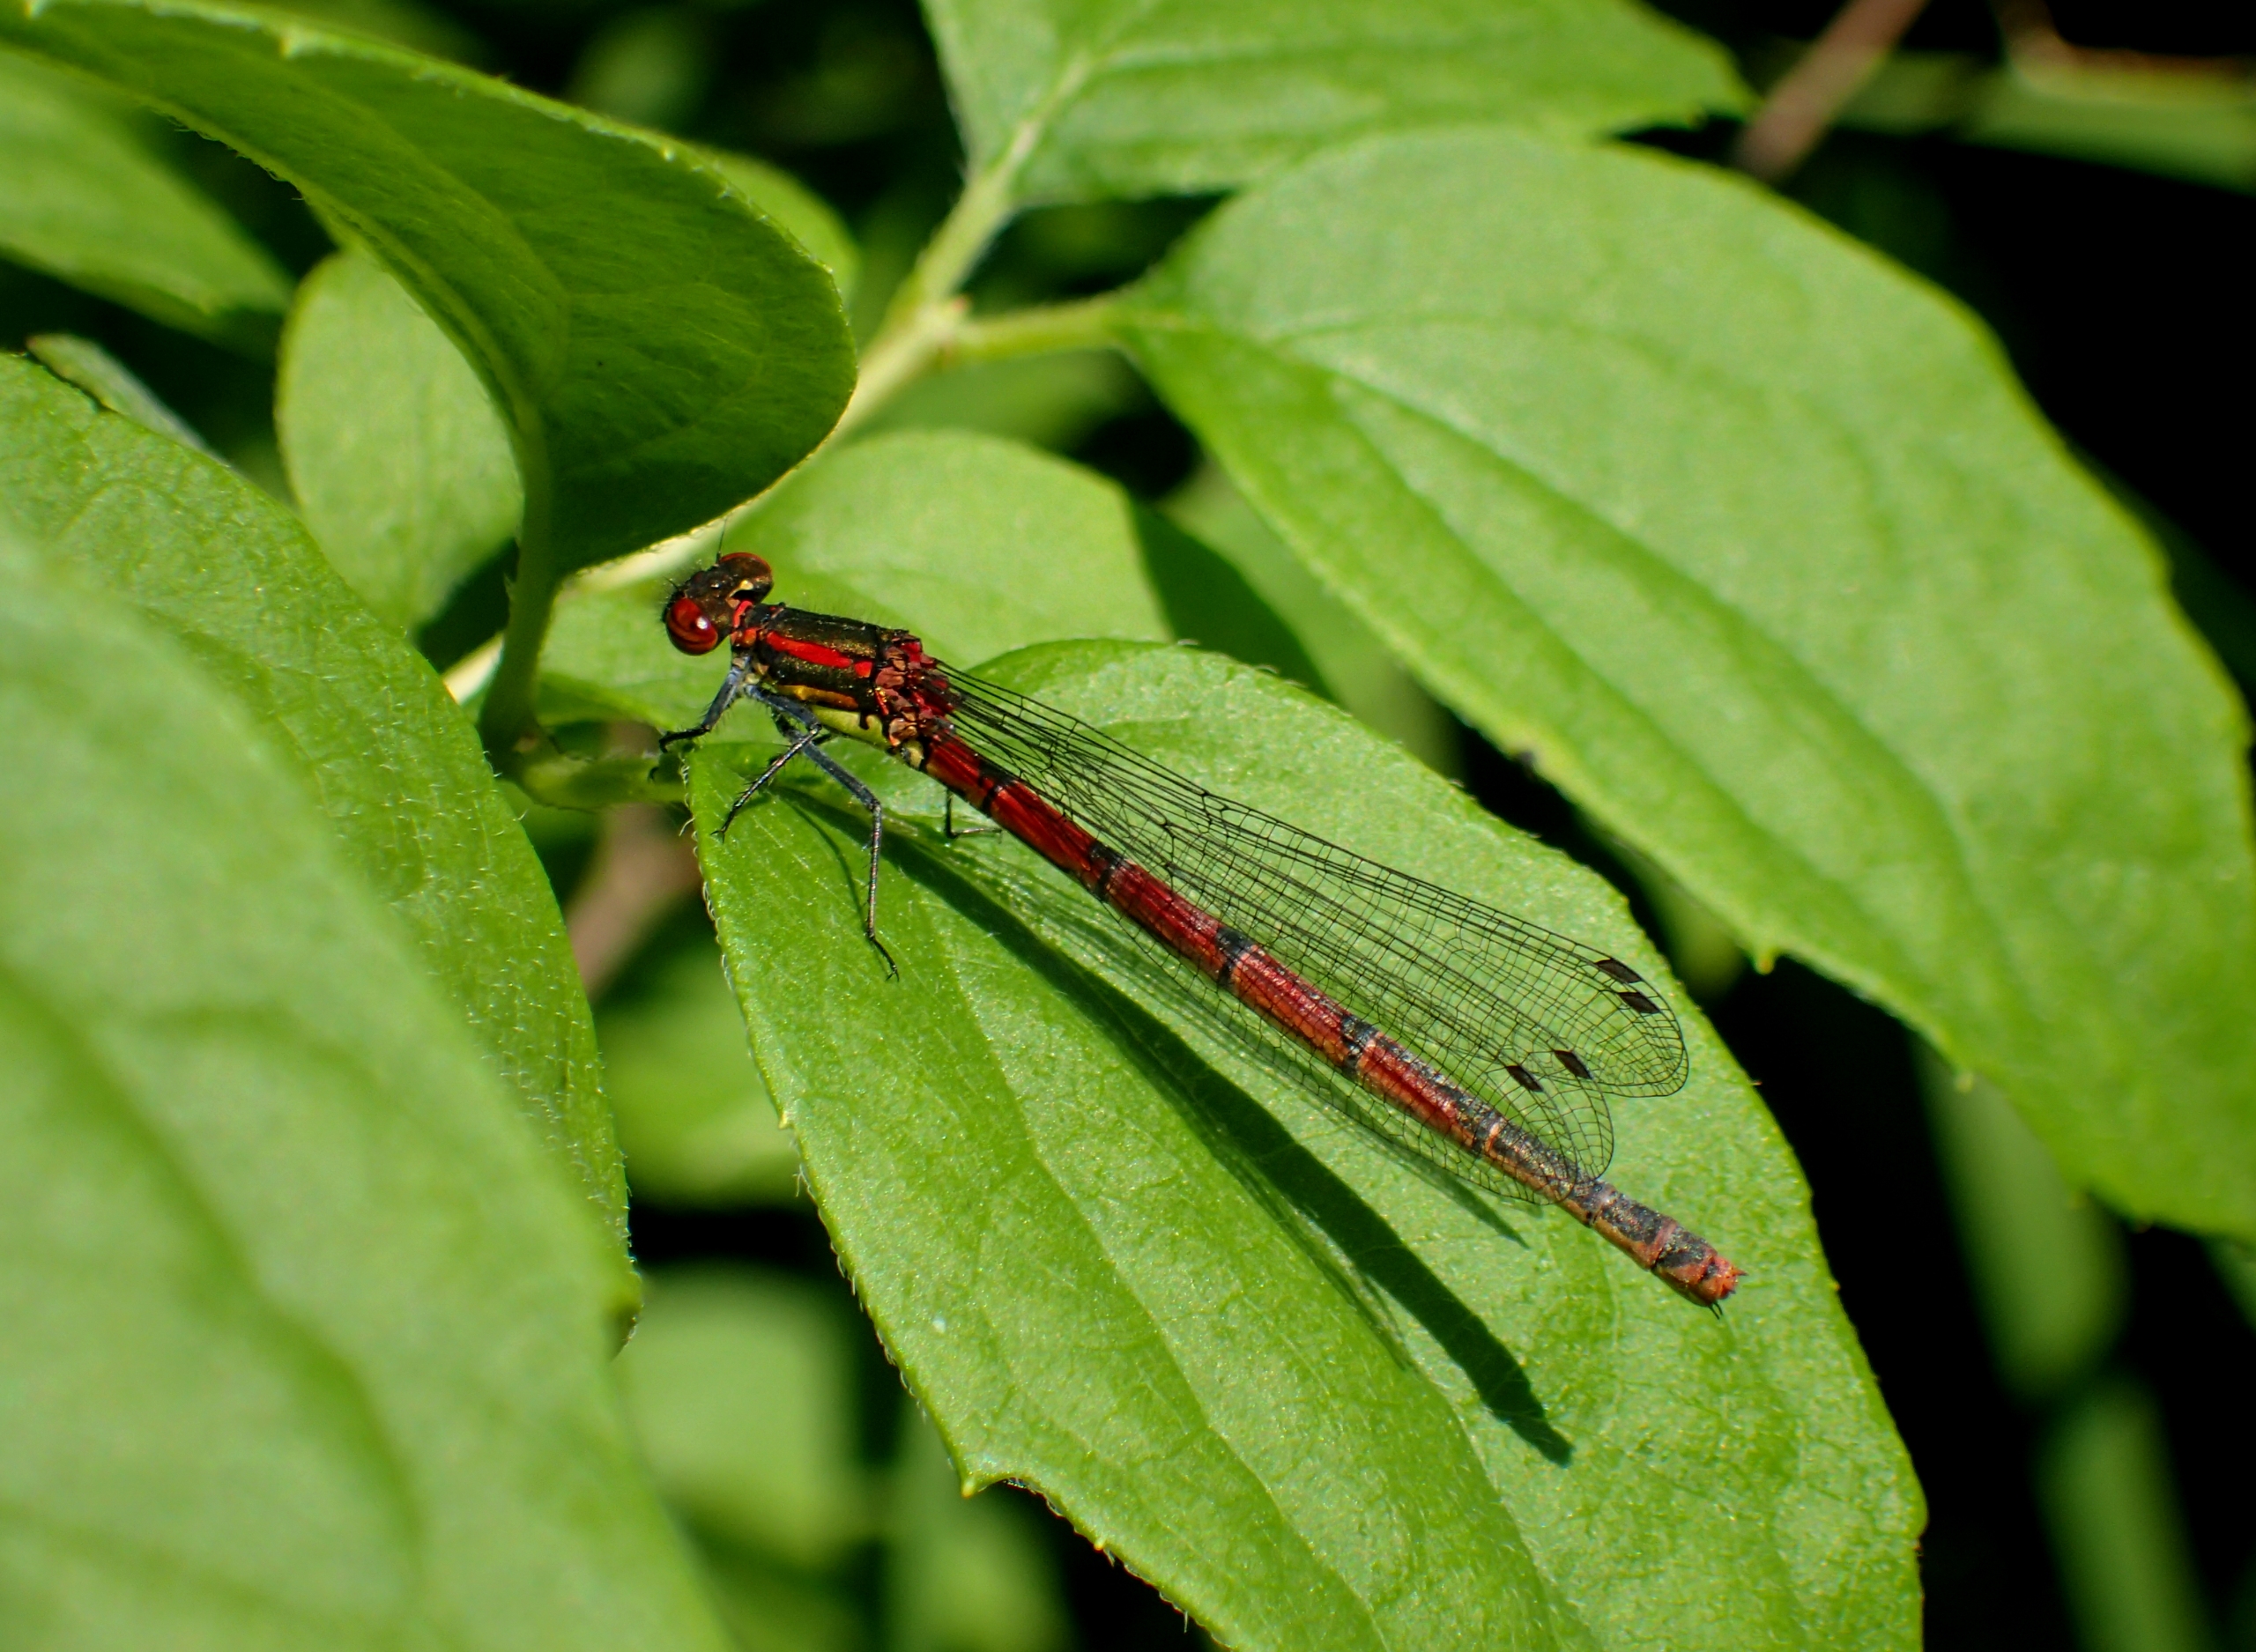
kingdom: Animalia
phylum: Arthropoda
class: Insecta
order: Odonata
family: Coenagrionidae
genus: Pyrrhosoma
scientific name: Pyrrhosoma nymphula
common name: Rød vandnymfe
